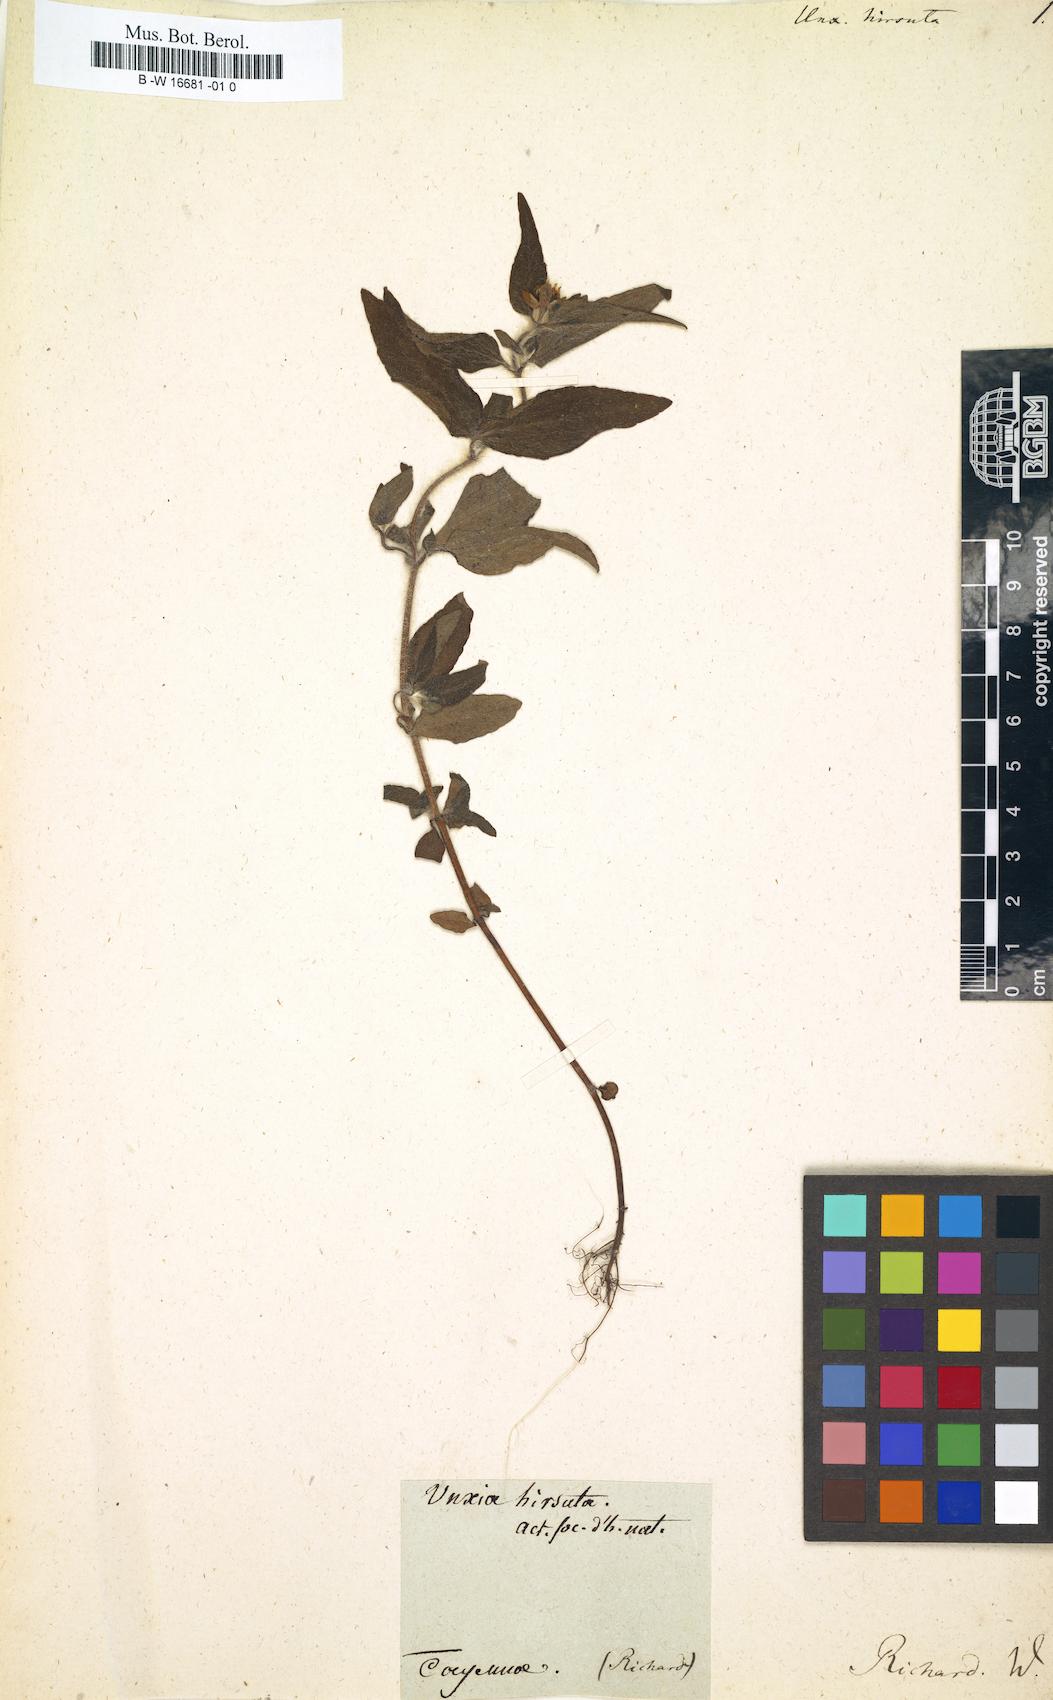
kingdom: Plantae
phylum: Tracheophyta
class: Magnoliopsida
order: Asterales
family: Asteraceae
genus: Unxia
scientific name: Unxia camphorata
